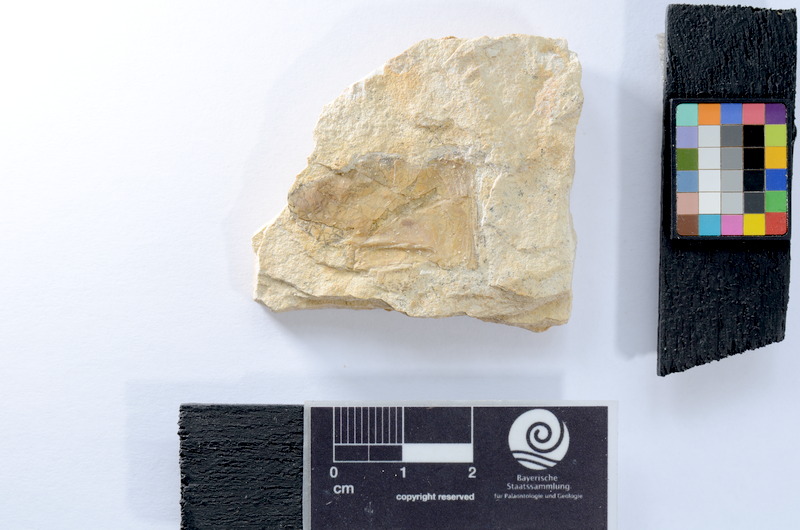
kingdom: Animalia
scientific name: Animalia
